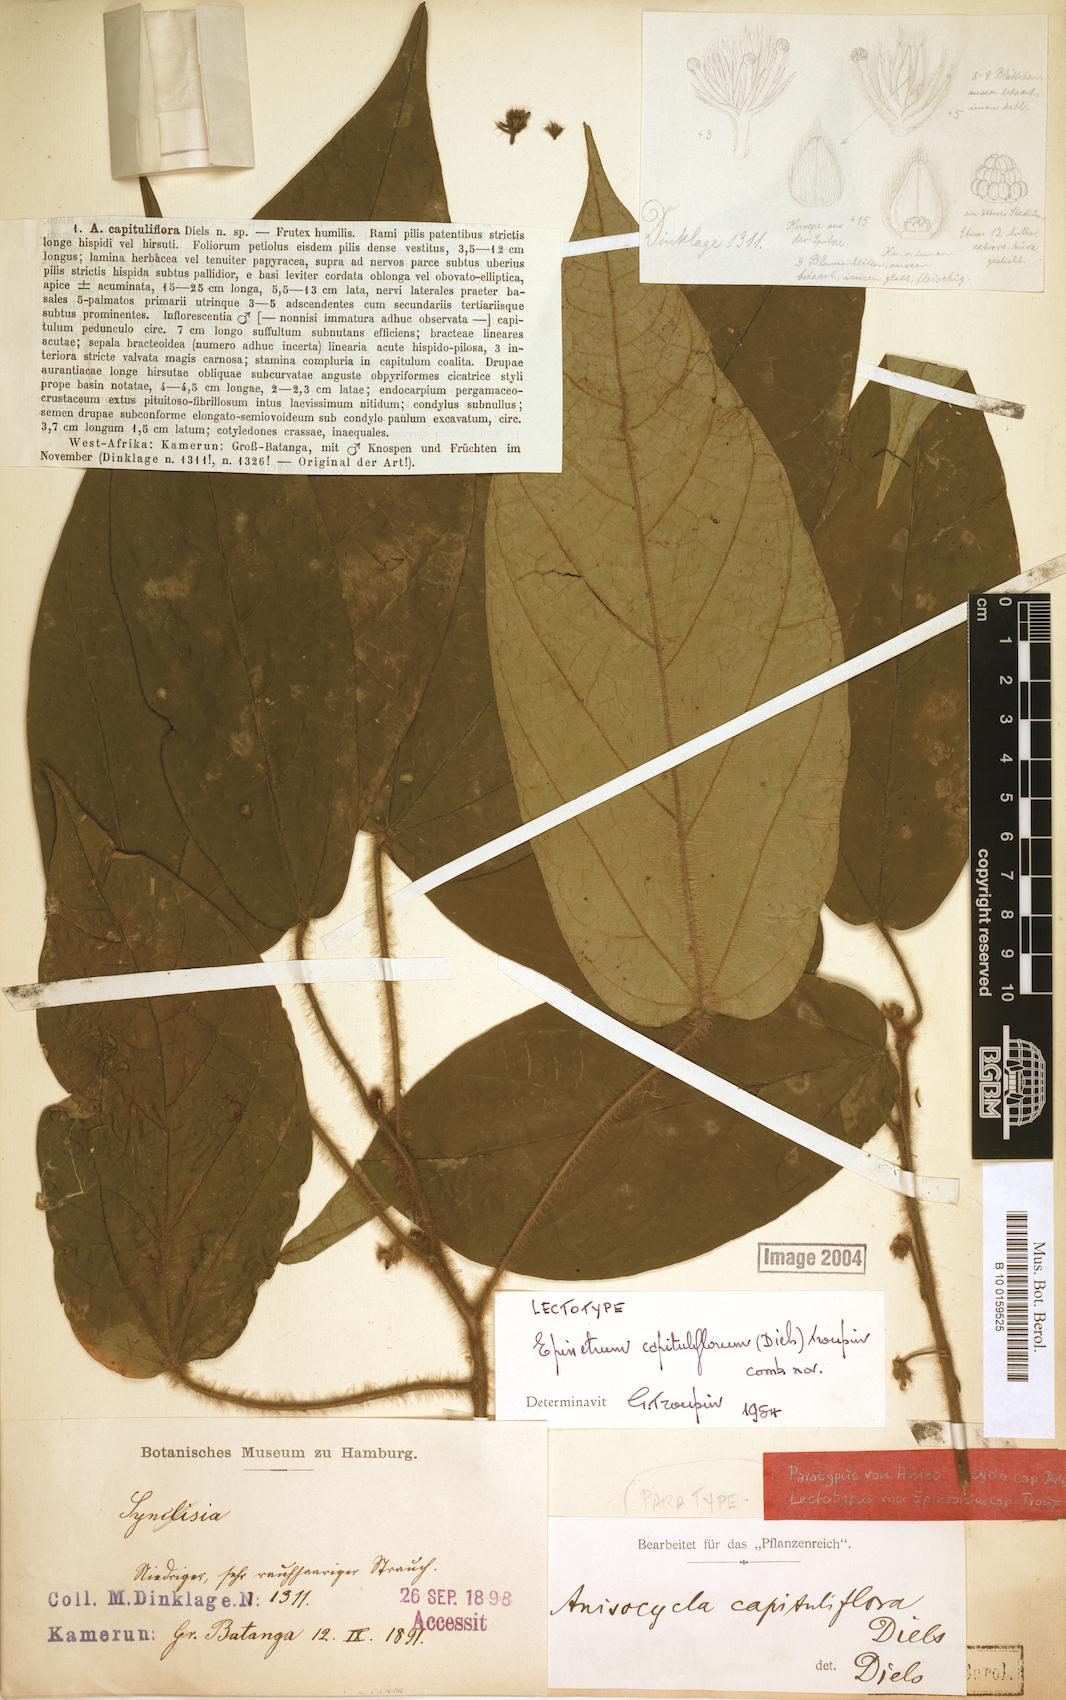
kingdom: Plantae
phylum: Tracheophyta
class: Magnoliopsida
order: Ranunculales
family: Menispermaceae
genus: Albertisia
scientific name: Albertisia capituliflora
